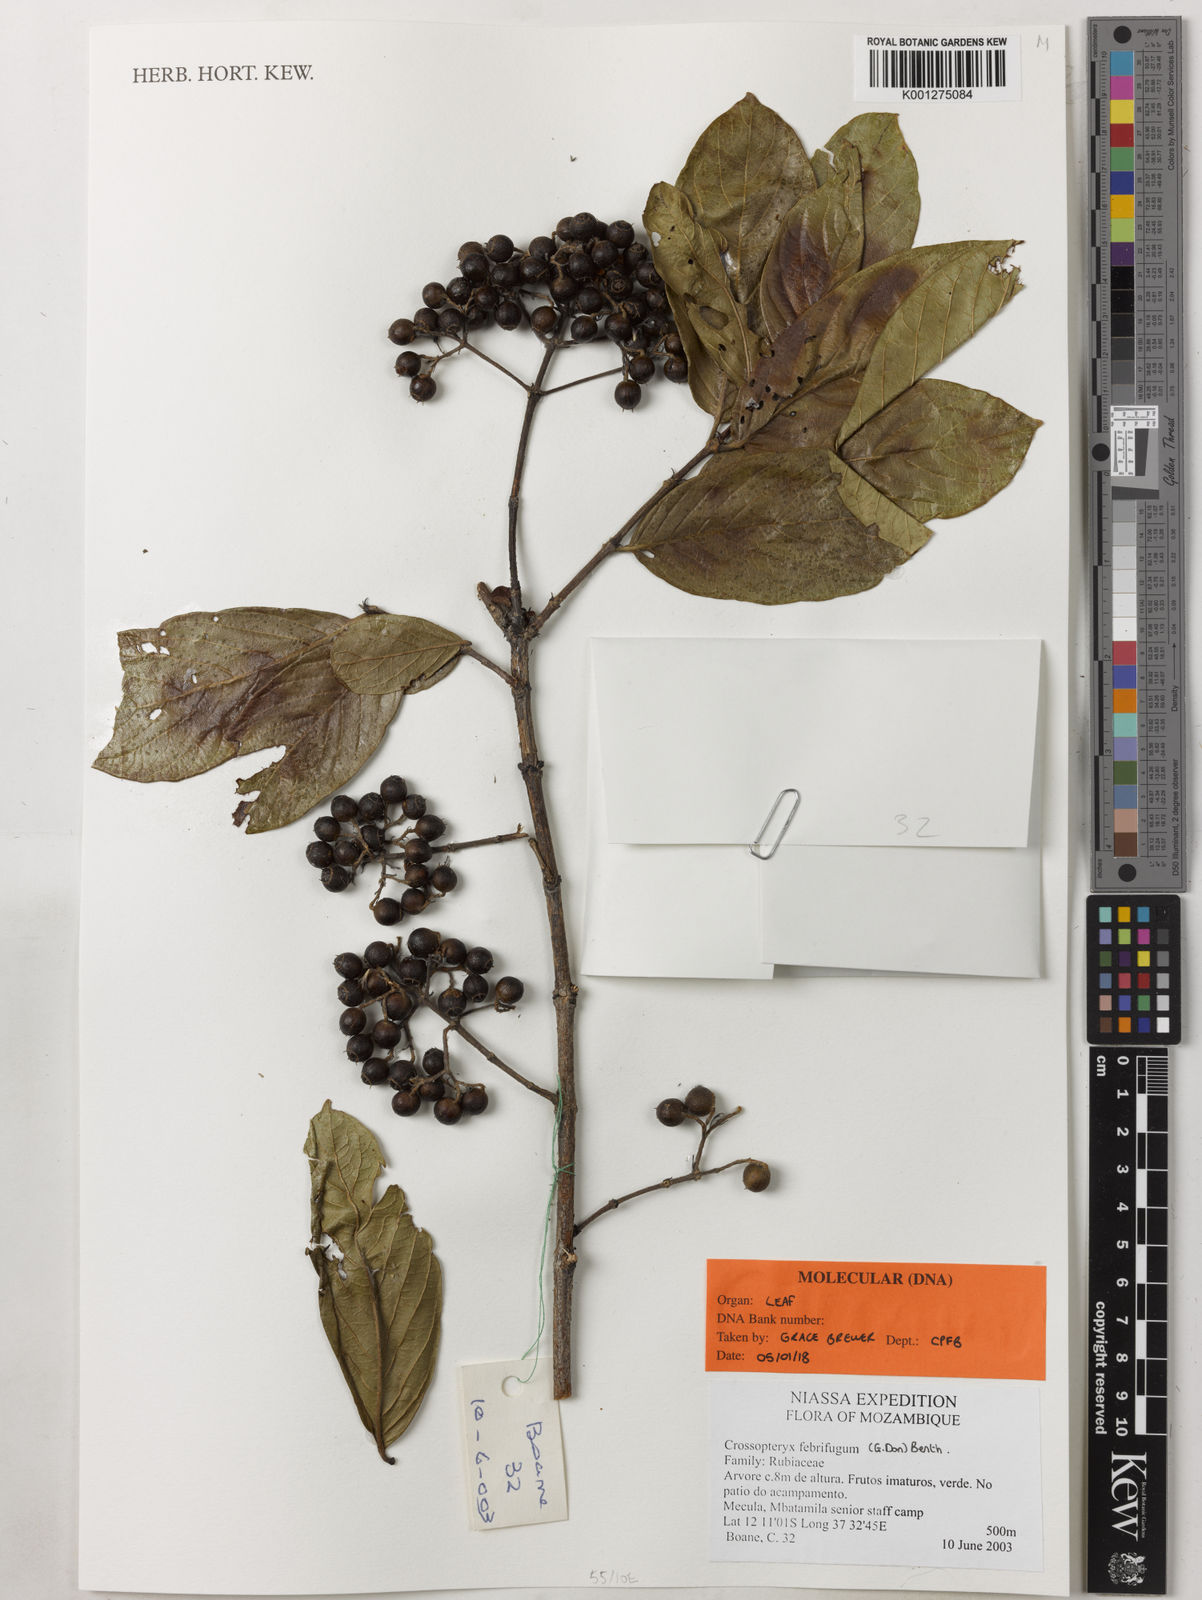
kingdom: Plantae
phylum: Tracheophyta
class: Magnoliopsida
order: Gentianales
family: Rubiaceae
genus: Crossopteryx
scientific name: Crossopteryx febrifuga
